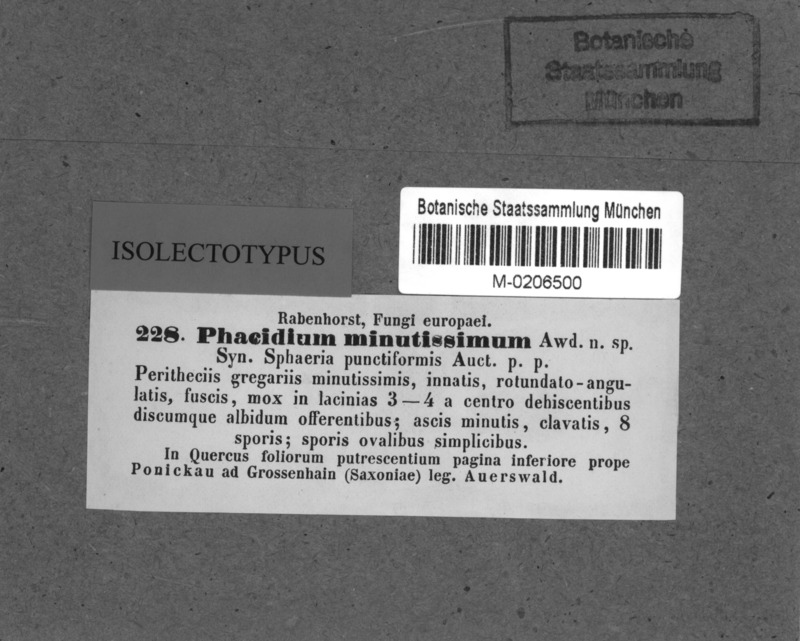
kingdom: Fungi
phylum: Ascomycota
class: Leotiomycetes
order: Helotiales
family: Discinellaceae
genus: Naevala
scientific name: Naevala perexigua
